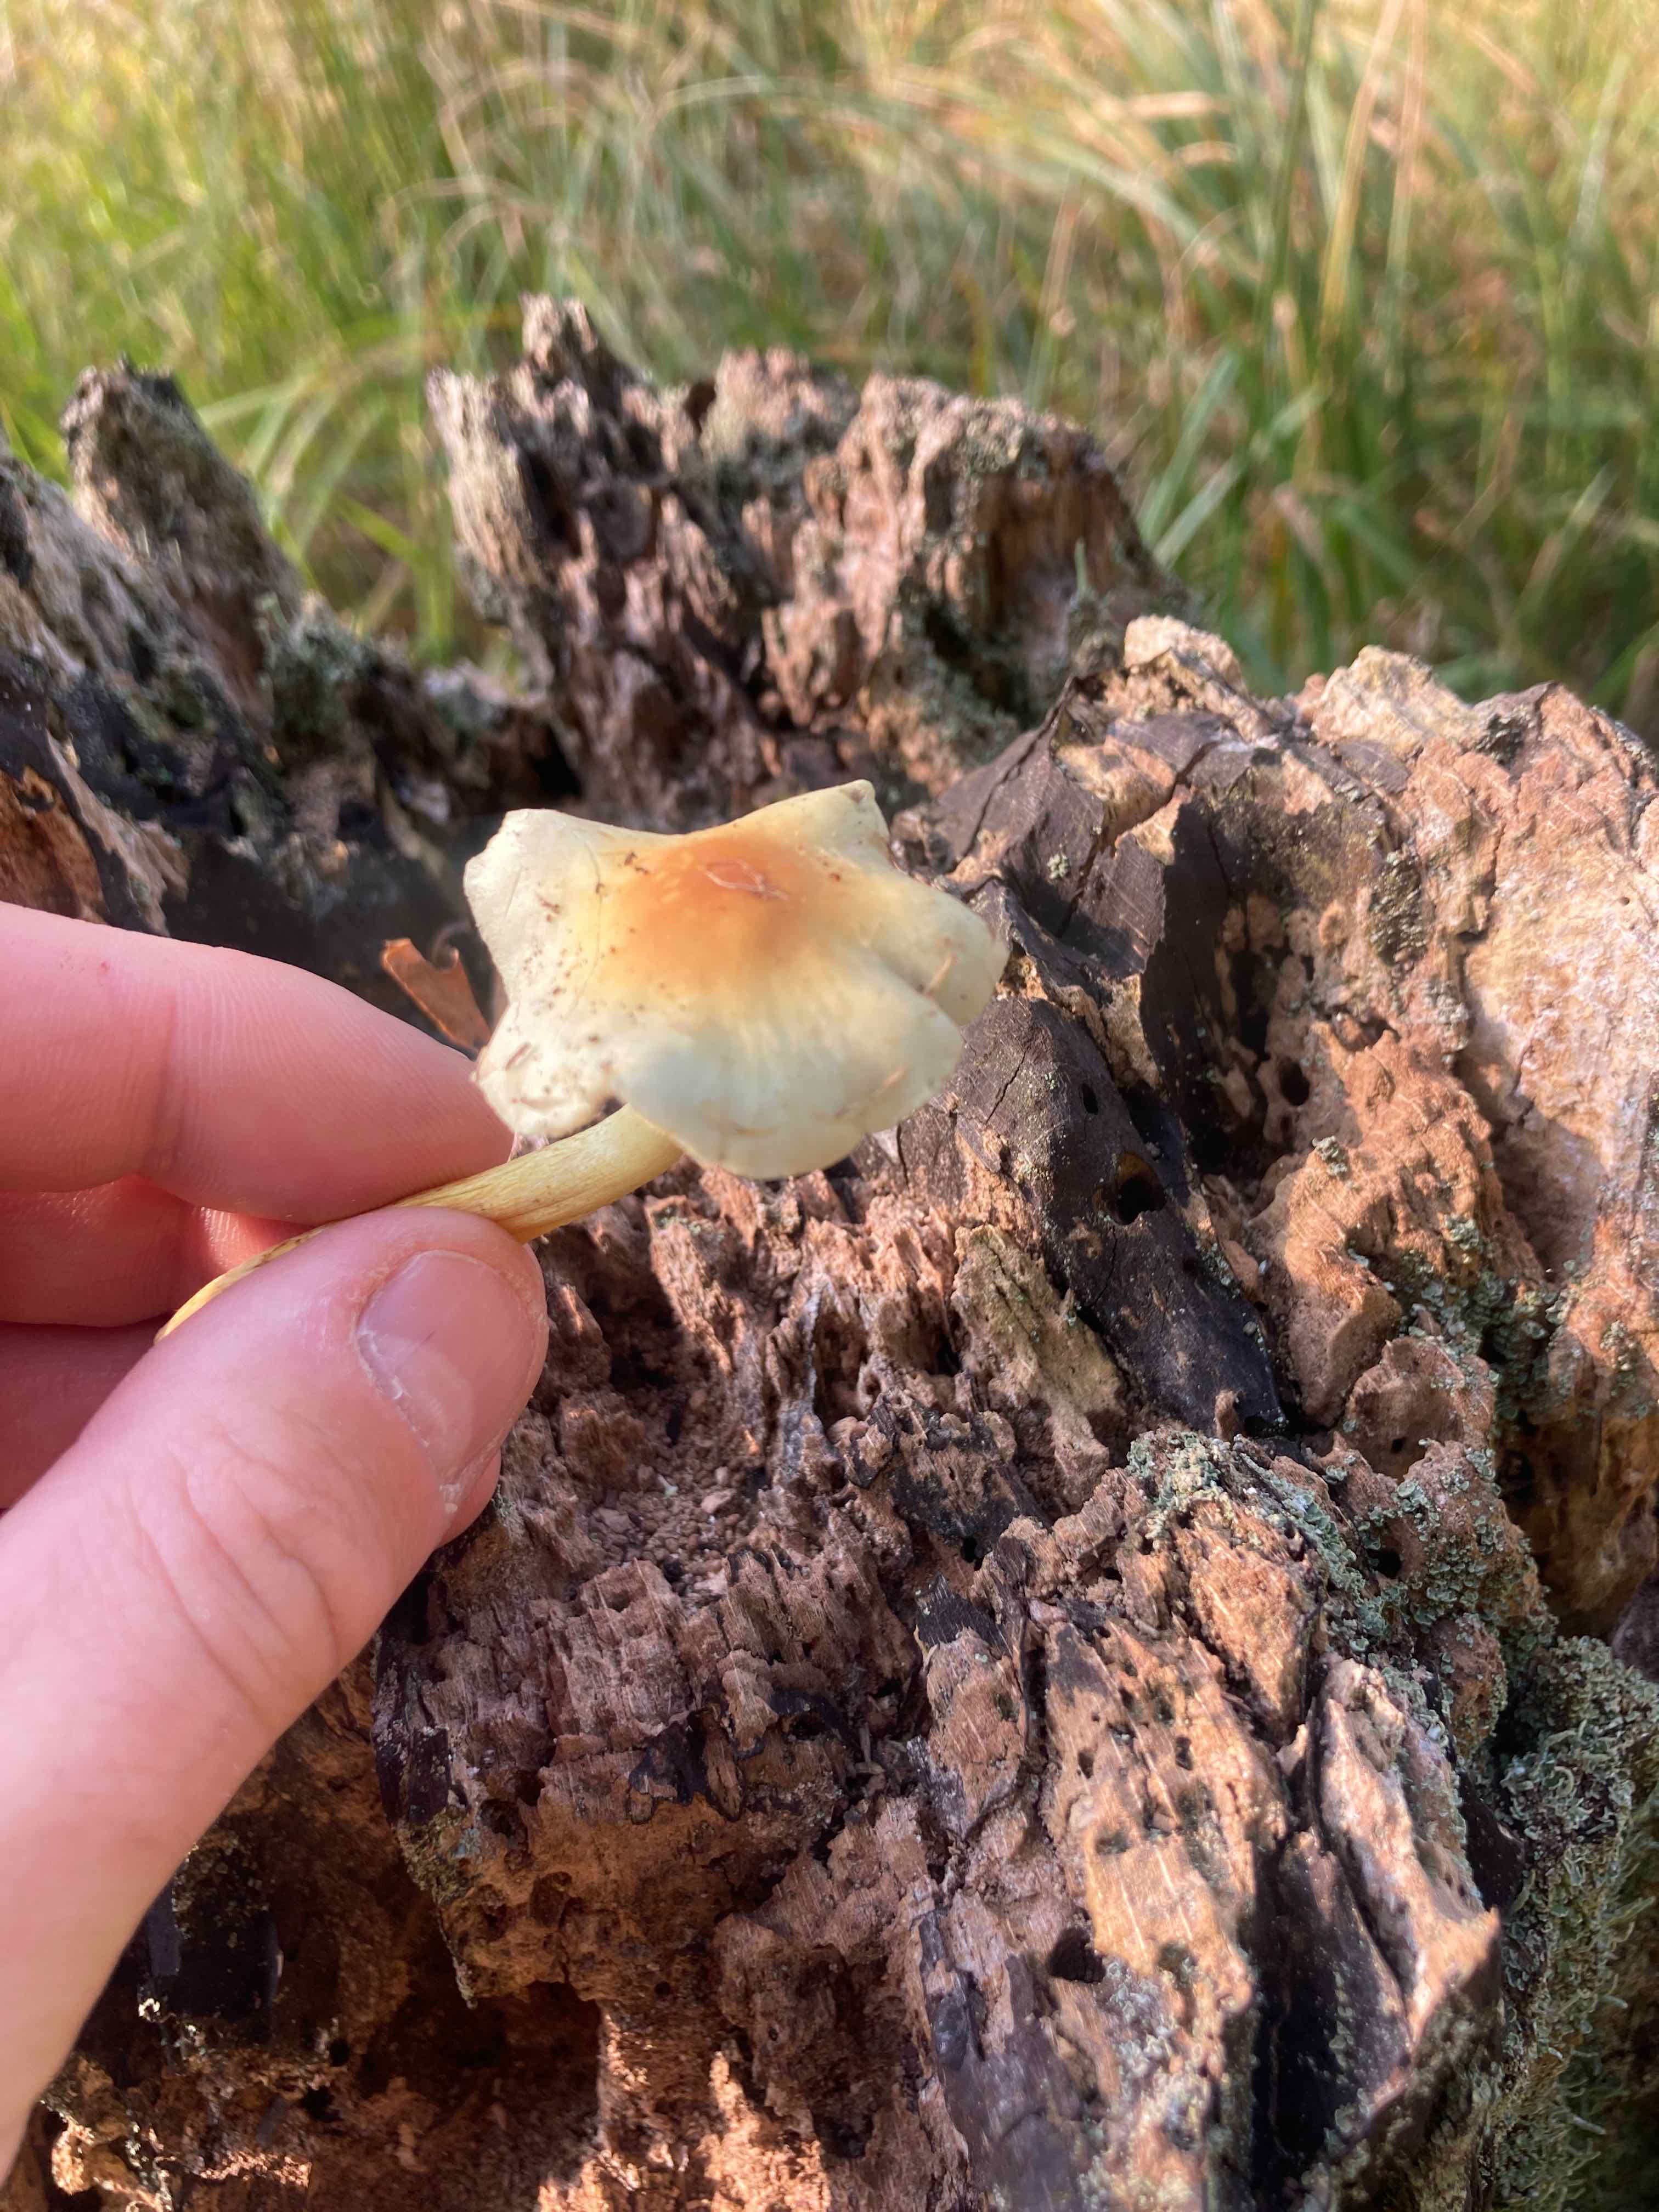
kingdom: Fungi
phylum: Basidiomycota
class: Agaricomycetes
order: Agaricales
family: Strophariaceae
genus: Hypholoma
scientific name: Hypholoma fasciculare
